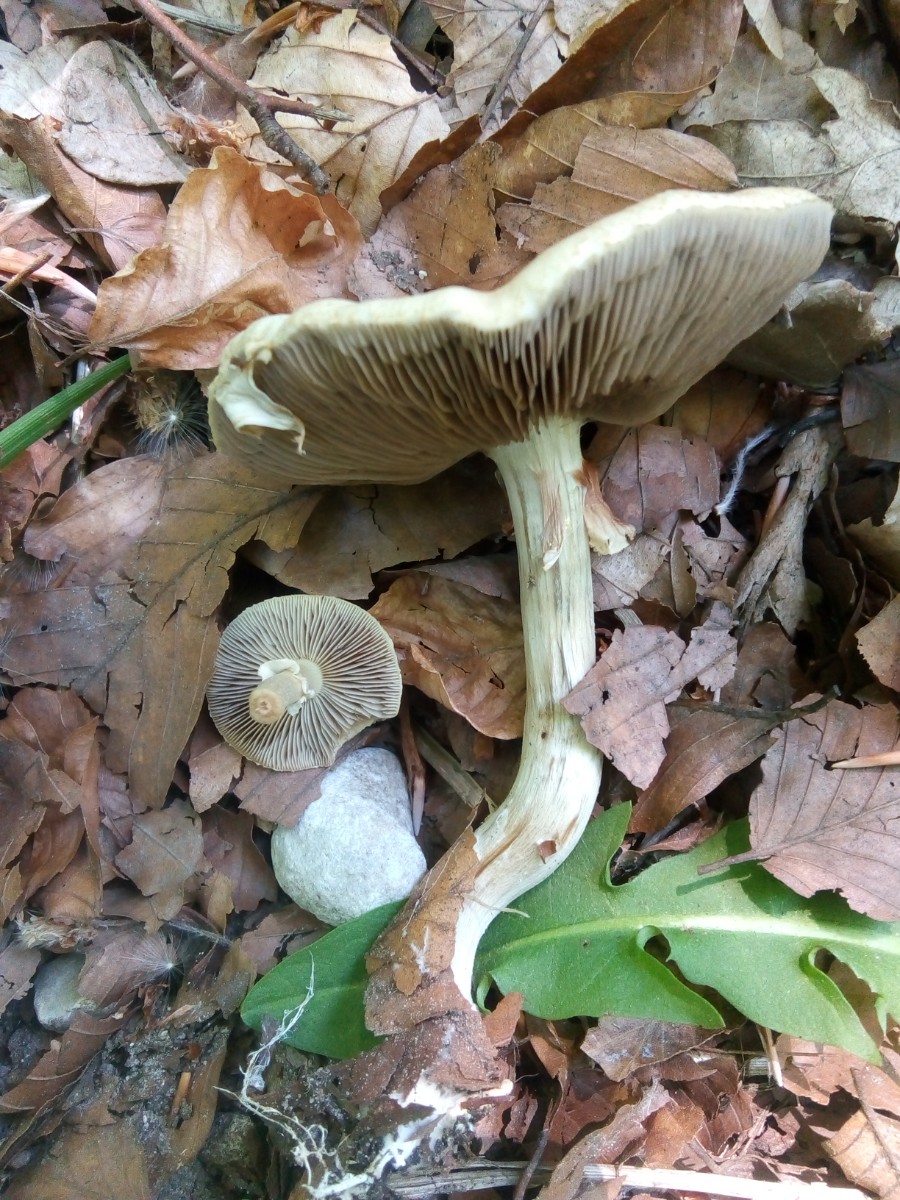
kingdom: Fungi
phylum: Basidiomycota
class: Agaricomycetes
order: Agaricales
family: Strophariaceae
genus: Agrocybe
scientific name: Agrocybe praecox
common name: tidlig agerhat
